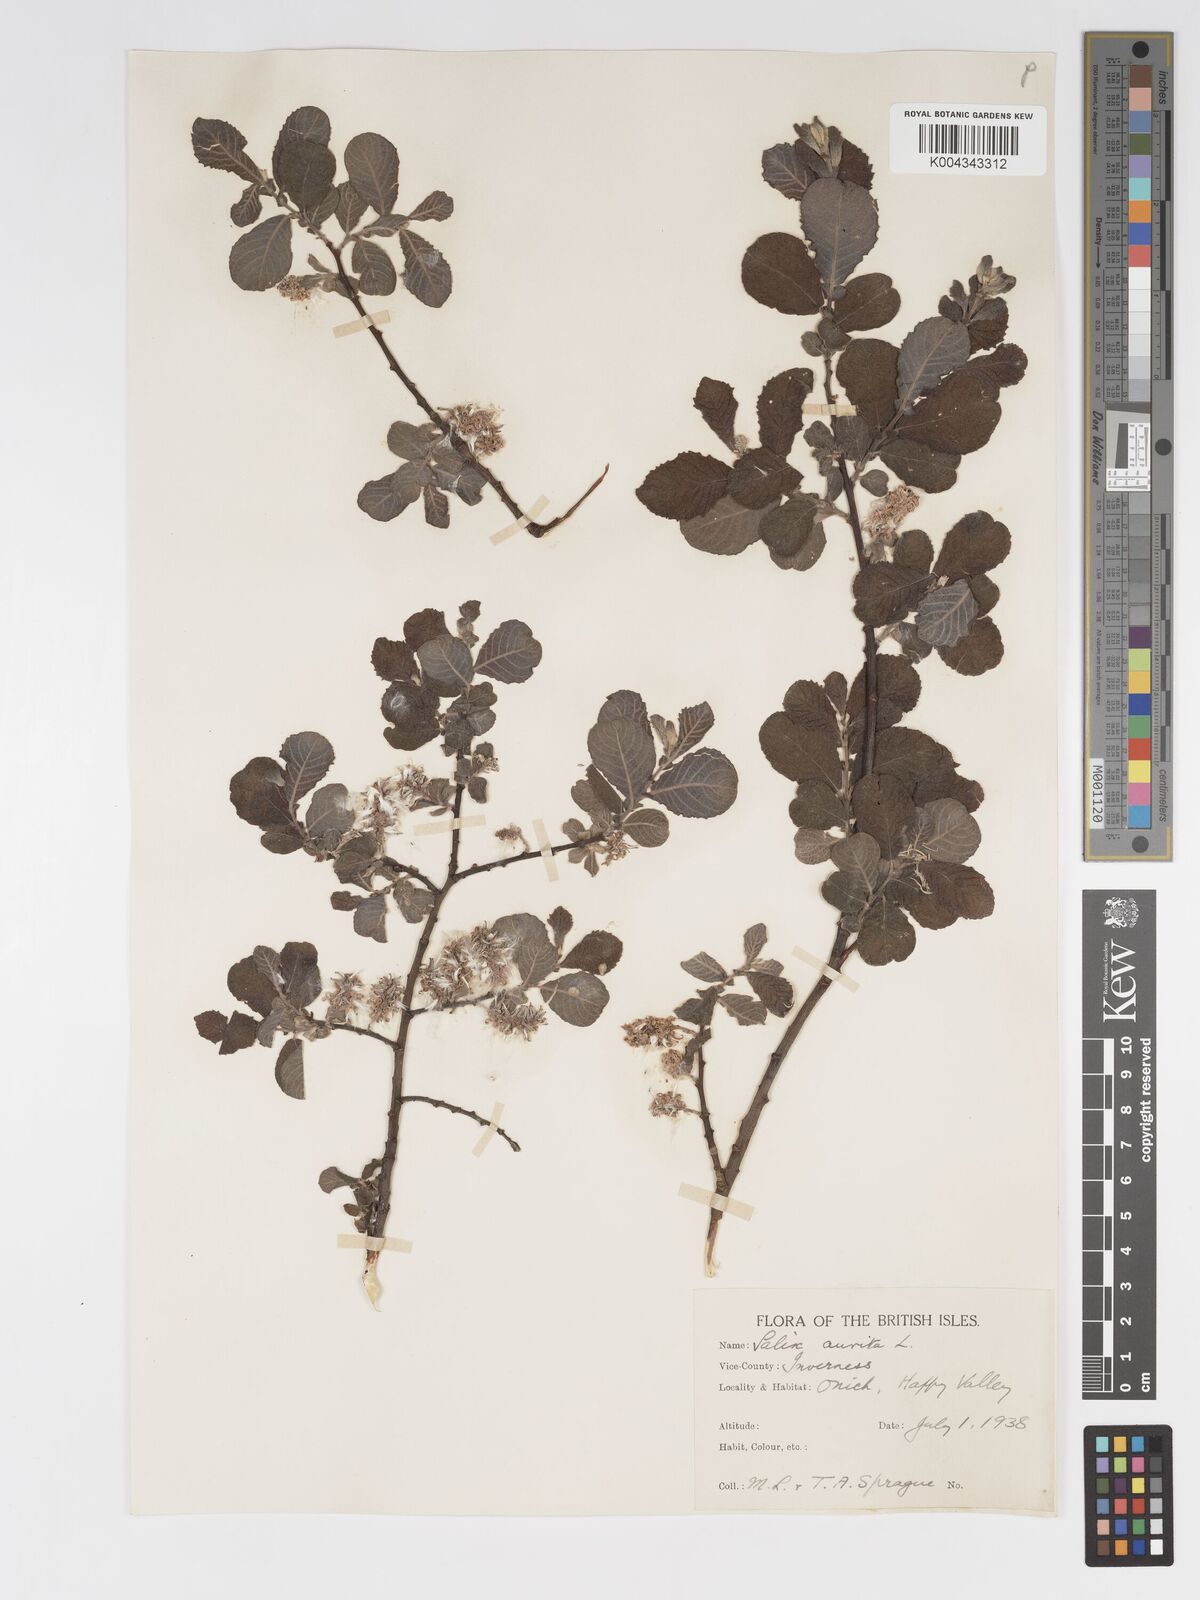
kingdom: Plantae
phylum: Tracheophyta
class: Magnoliopsida
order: Malpighiales
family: Salicaceae
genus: Salix
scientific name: Salix aurita
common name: Eared willow
